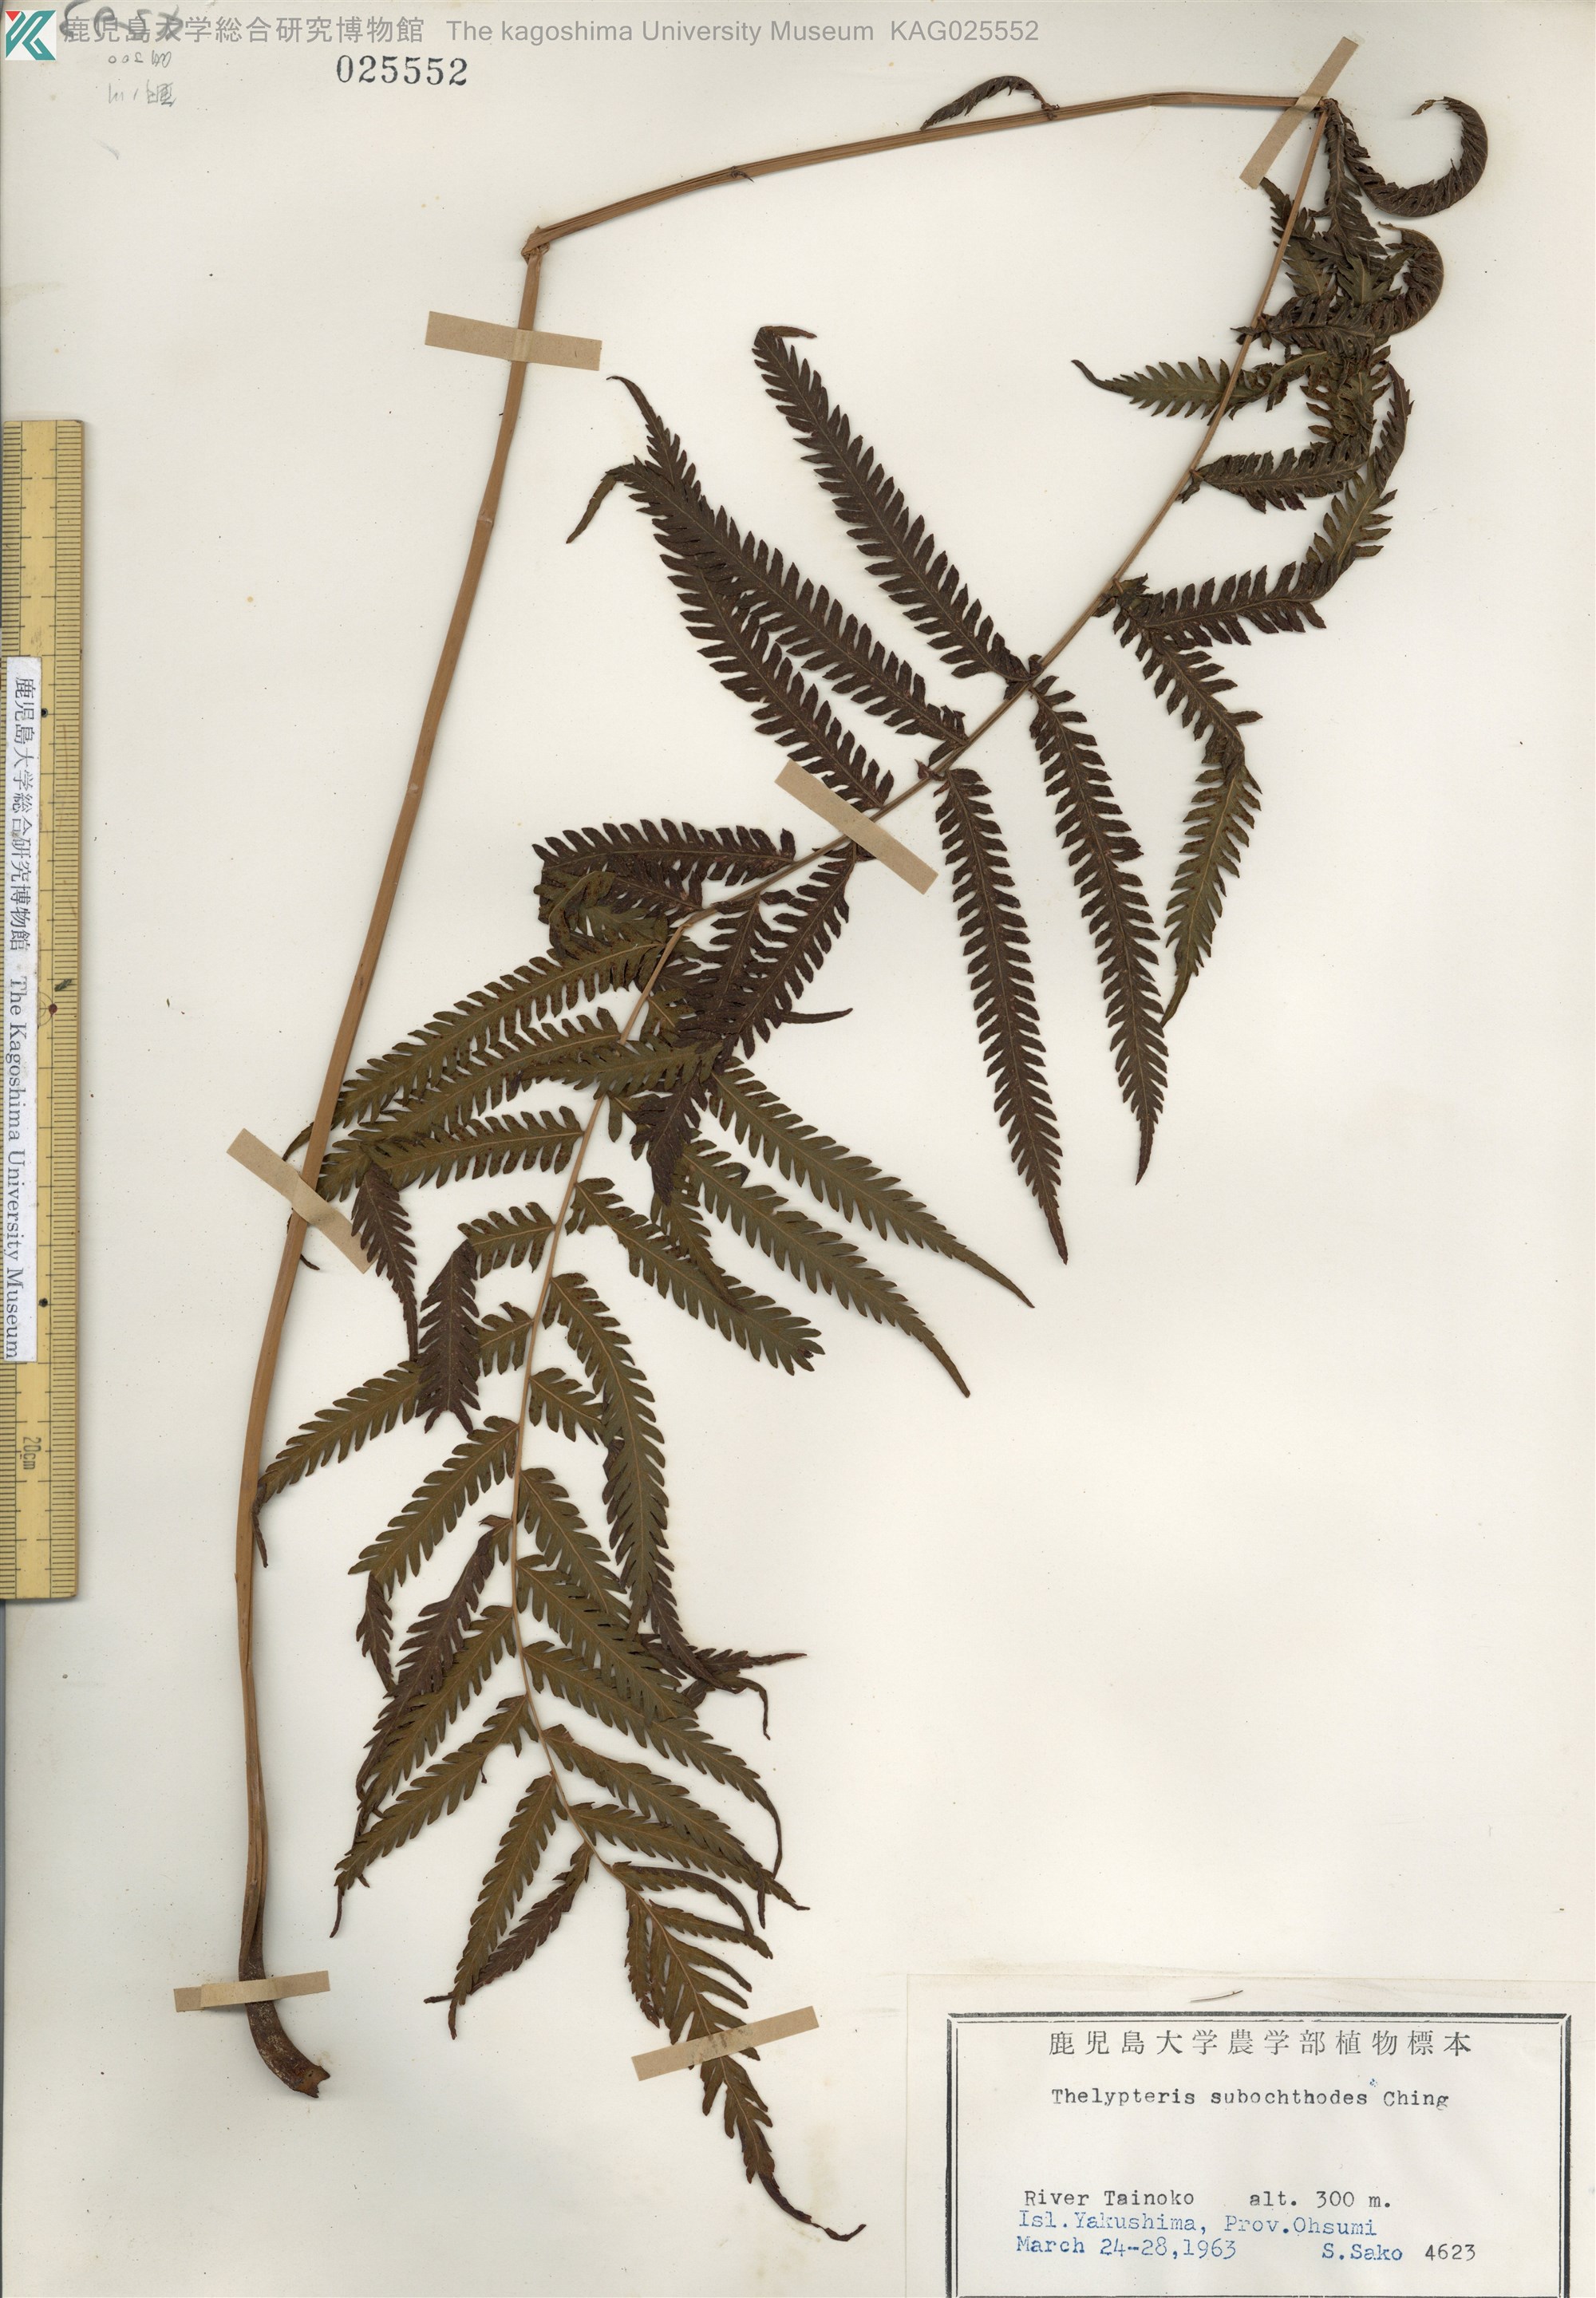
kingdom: Plantae
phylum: Tracheophyta
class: Polypodiopsida
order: Polypodiales
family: Thelypteridaceae
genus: Pseudocyclosorus
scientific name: Pseudocyclosorus esquirolii
